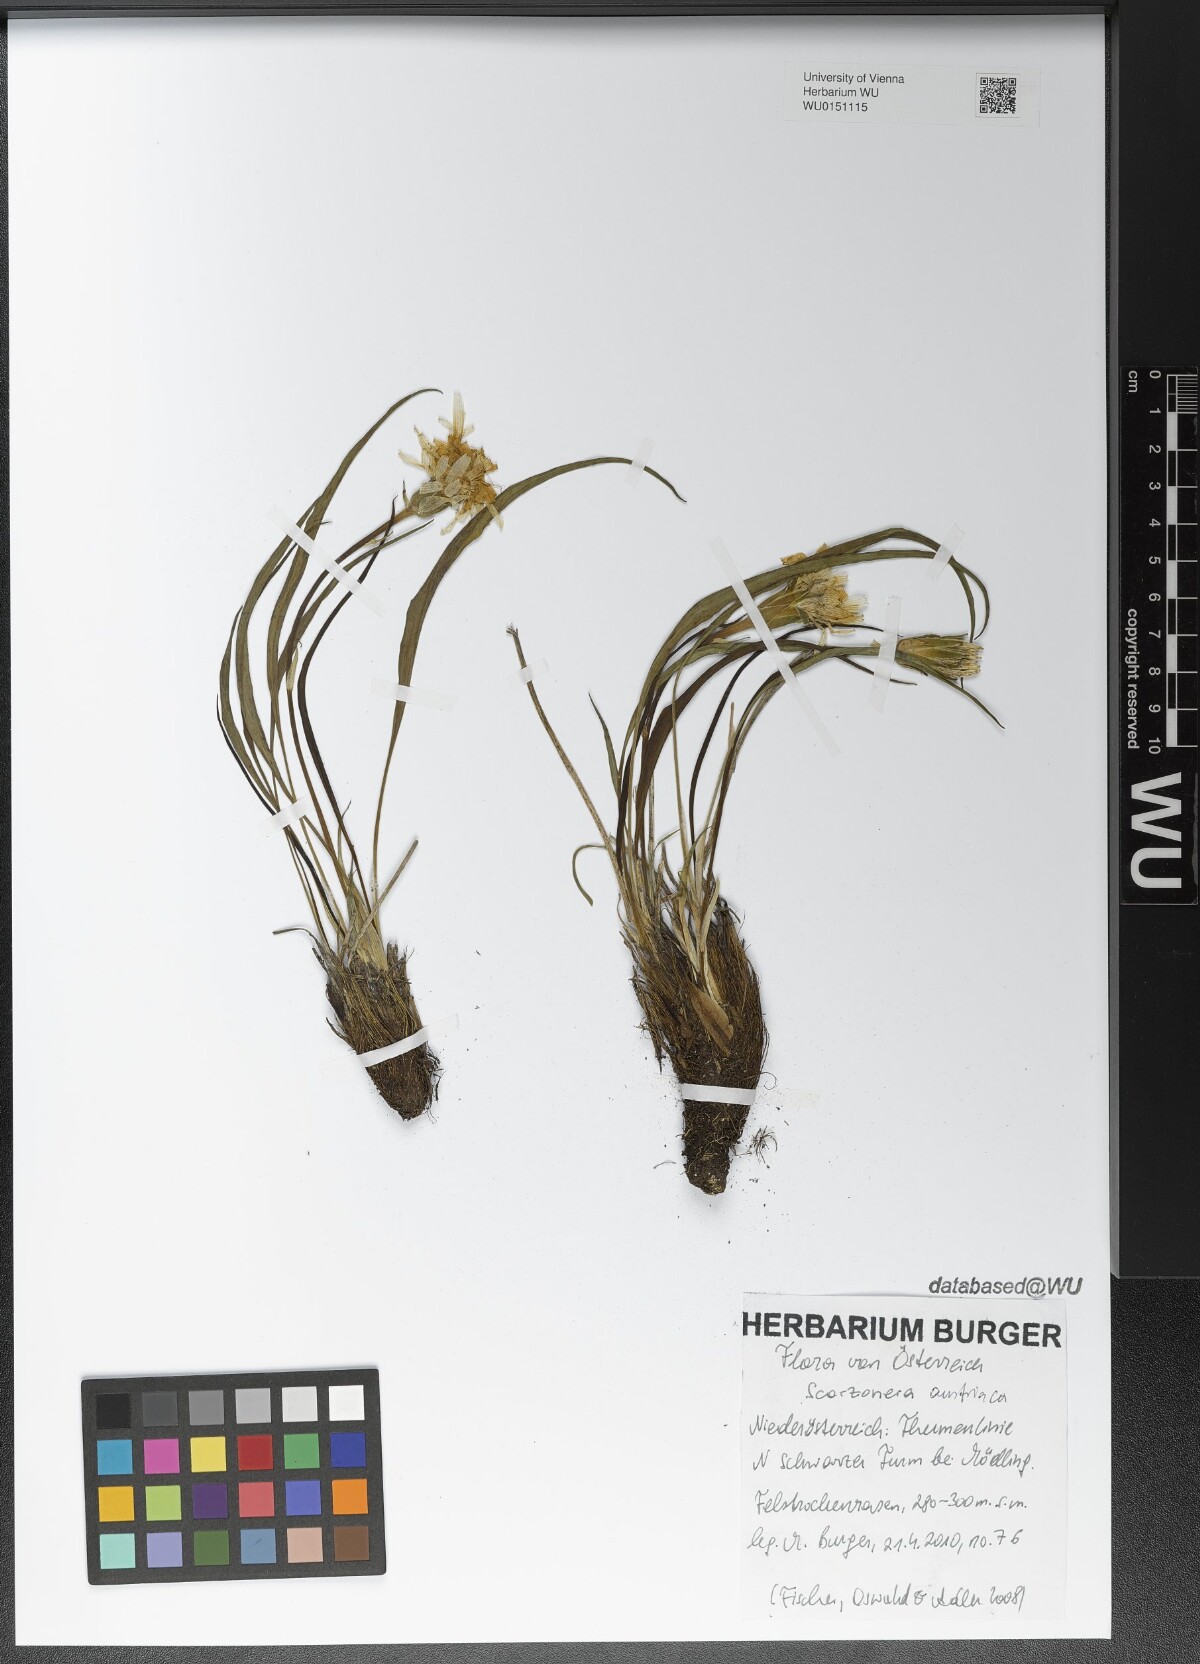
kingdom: Plantae
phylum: Tracheophyta
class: Magnoliopsida
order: Asterales
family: Asteraceae
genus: Takhtajaniantha
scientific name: Takhtajaniantha austriaca
